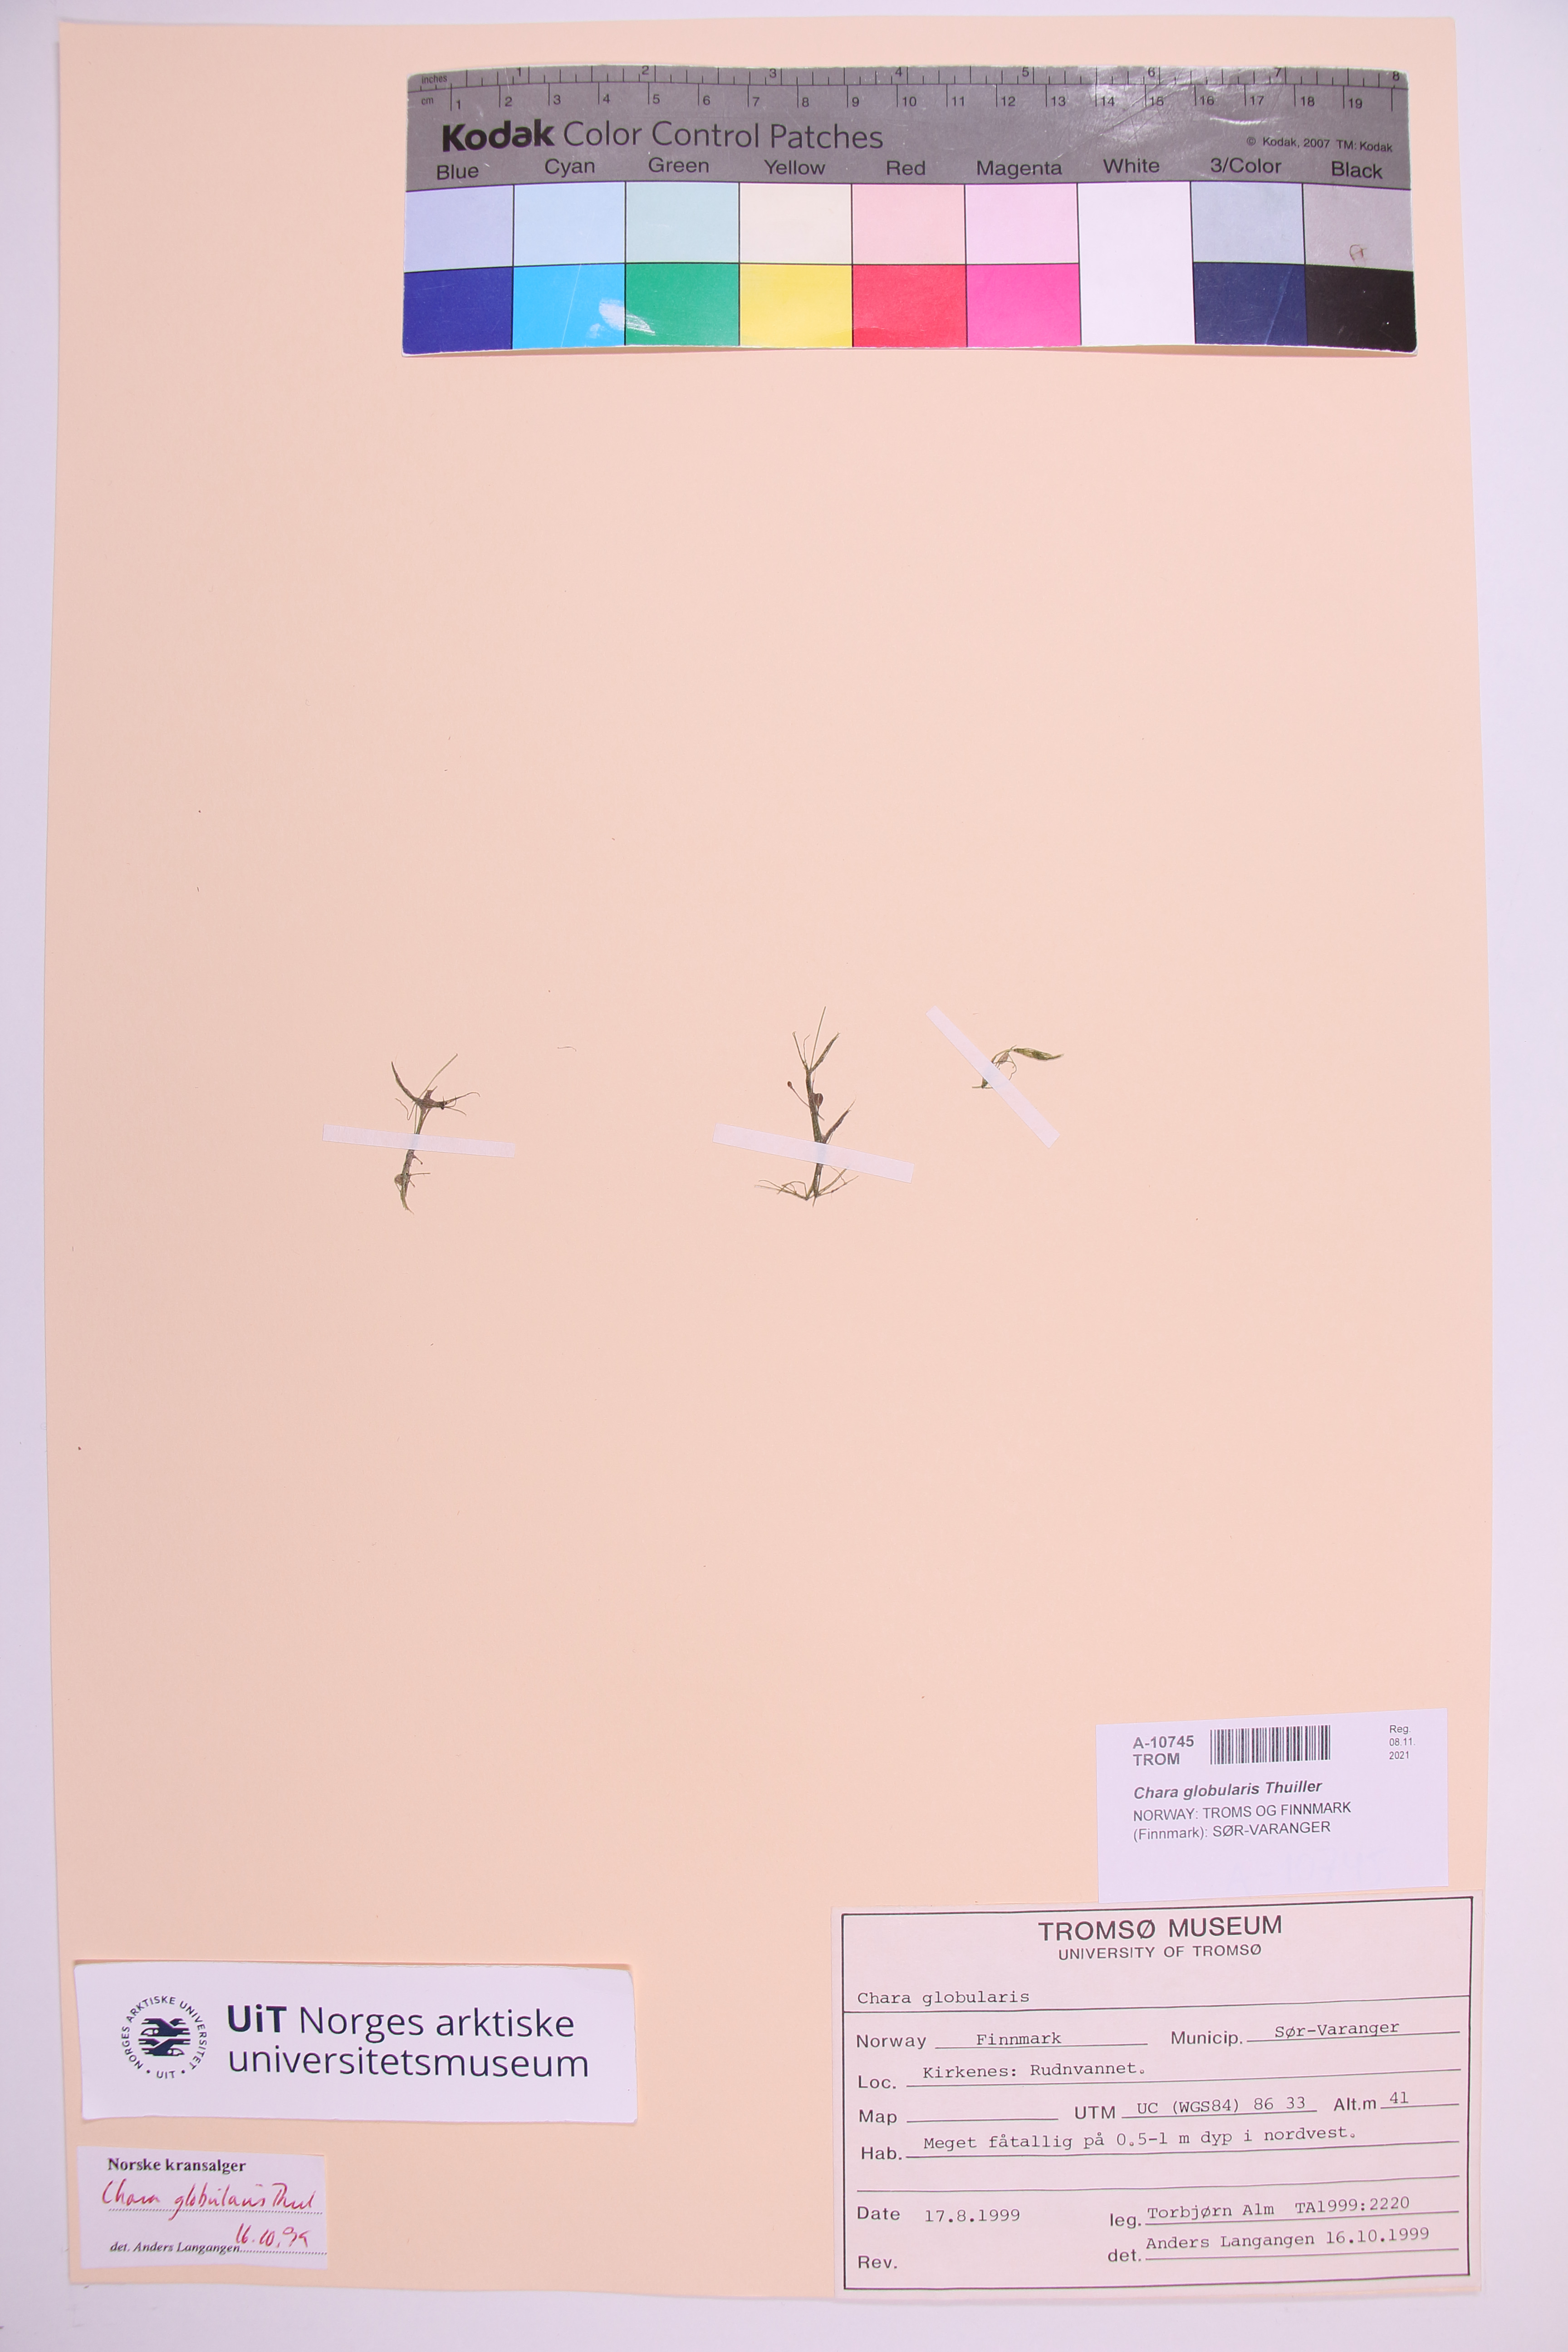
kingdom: Plantae
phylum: Charophyta
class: Charophyceae
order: Charales
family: Characeae
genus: Chara
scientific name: Chara globularis
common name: Fragile stonewort
